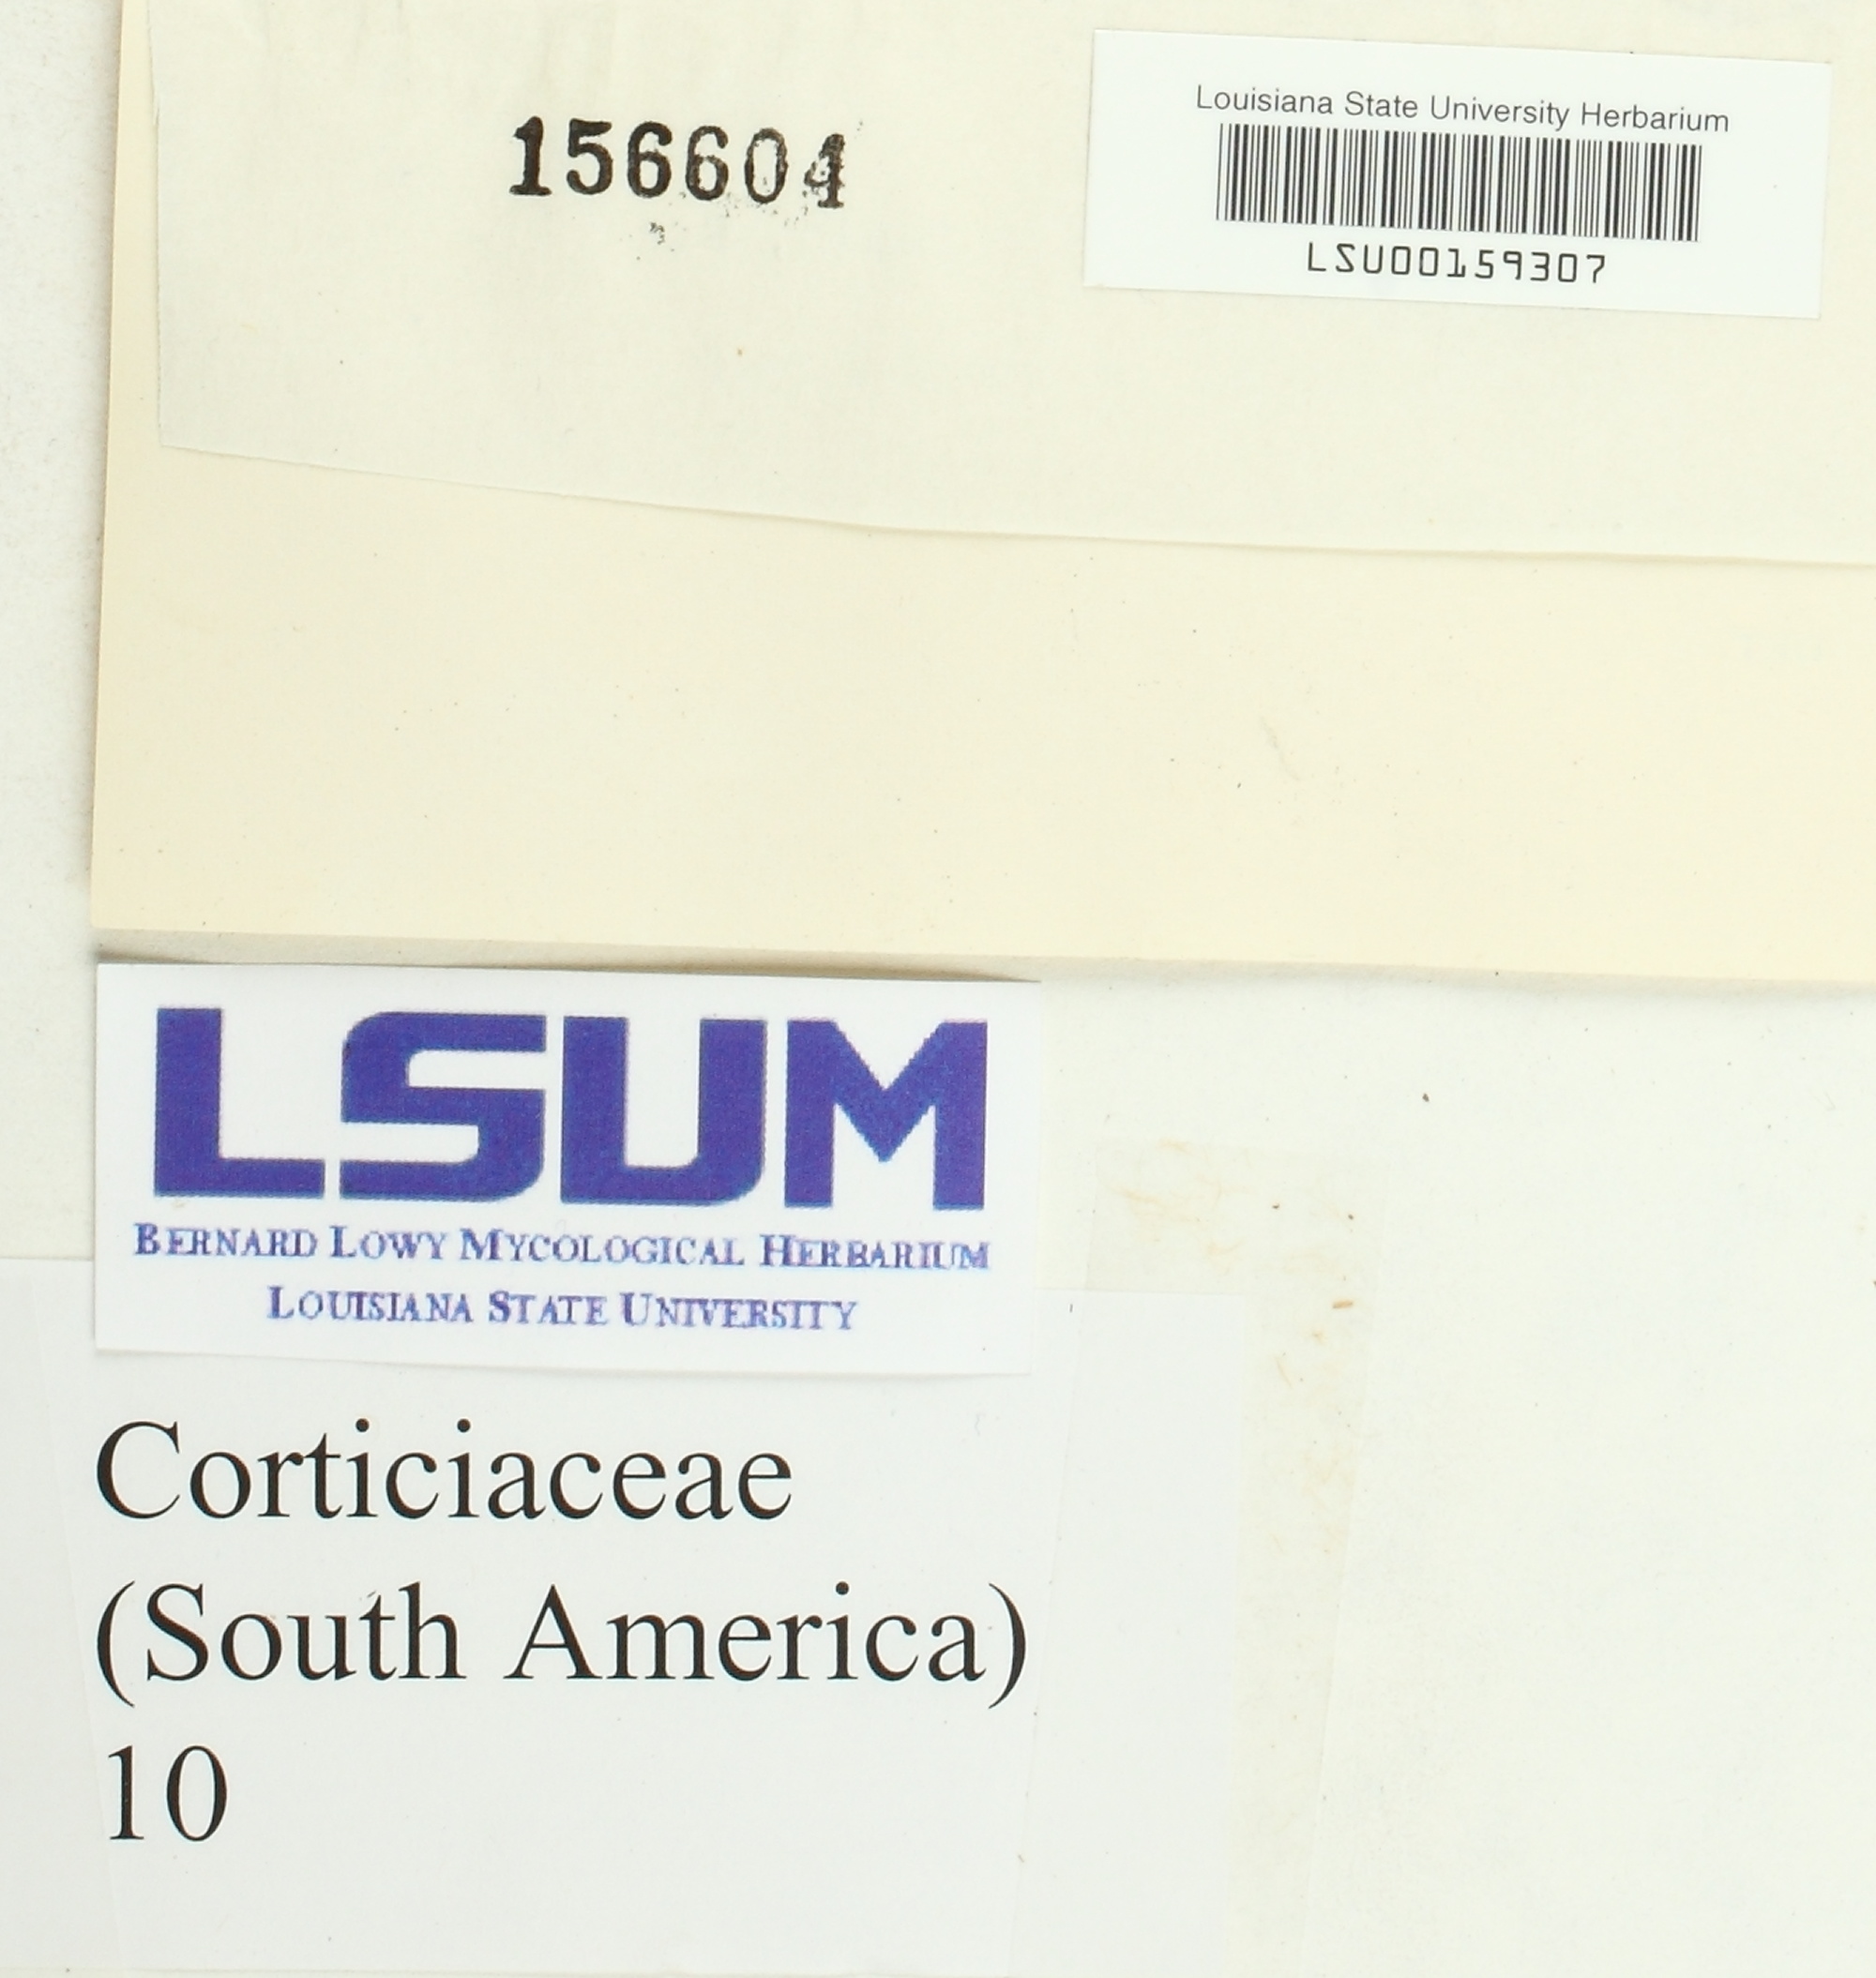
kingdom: Fungi
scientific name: Fungi
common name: Fungi
